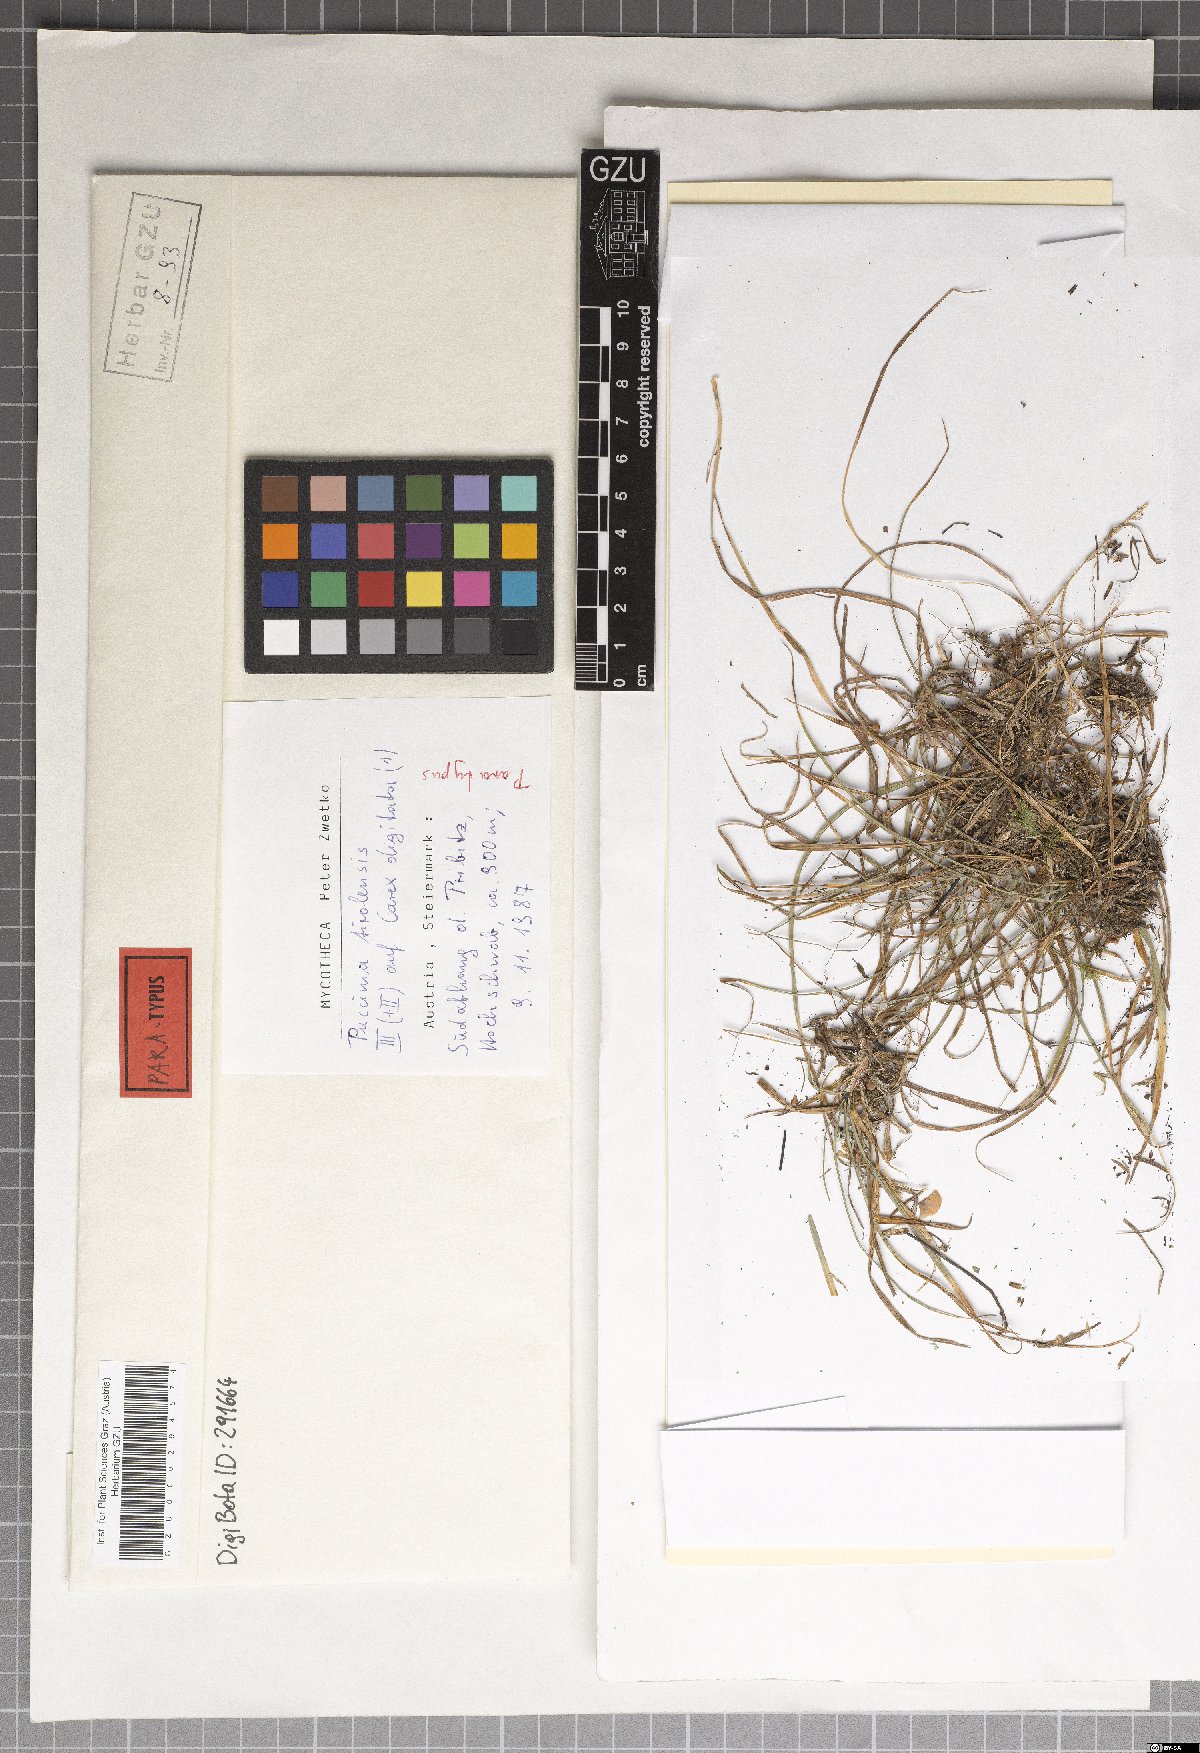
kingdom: Fungi
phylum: Basidiomycota
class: Pucciniomycetes
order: Pucciniales
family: Pucciniaceae
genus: Puccinia
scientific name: Puccinia tirolensis
